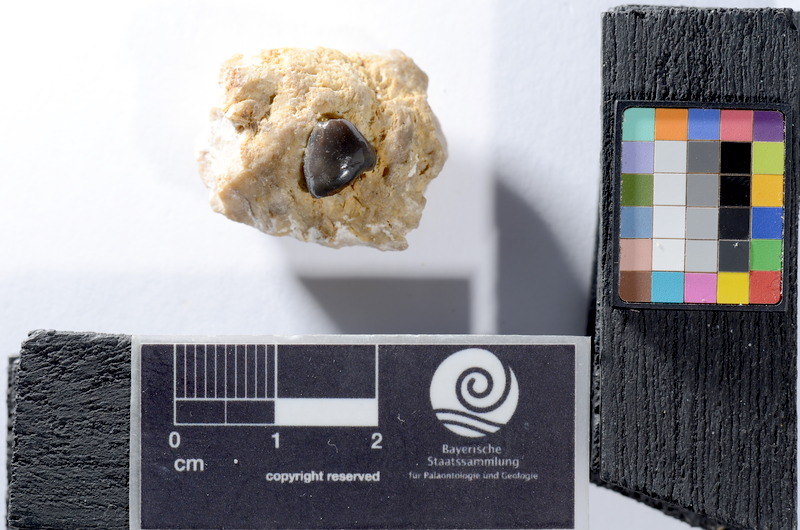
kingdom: Animalia
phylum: Chordata
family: Colobodontidae
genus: Colobodus
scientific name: Colobodus frequens
